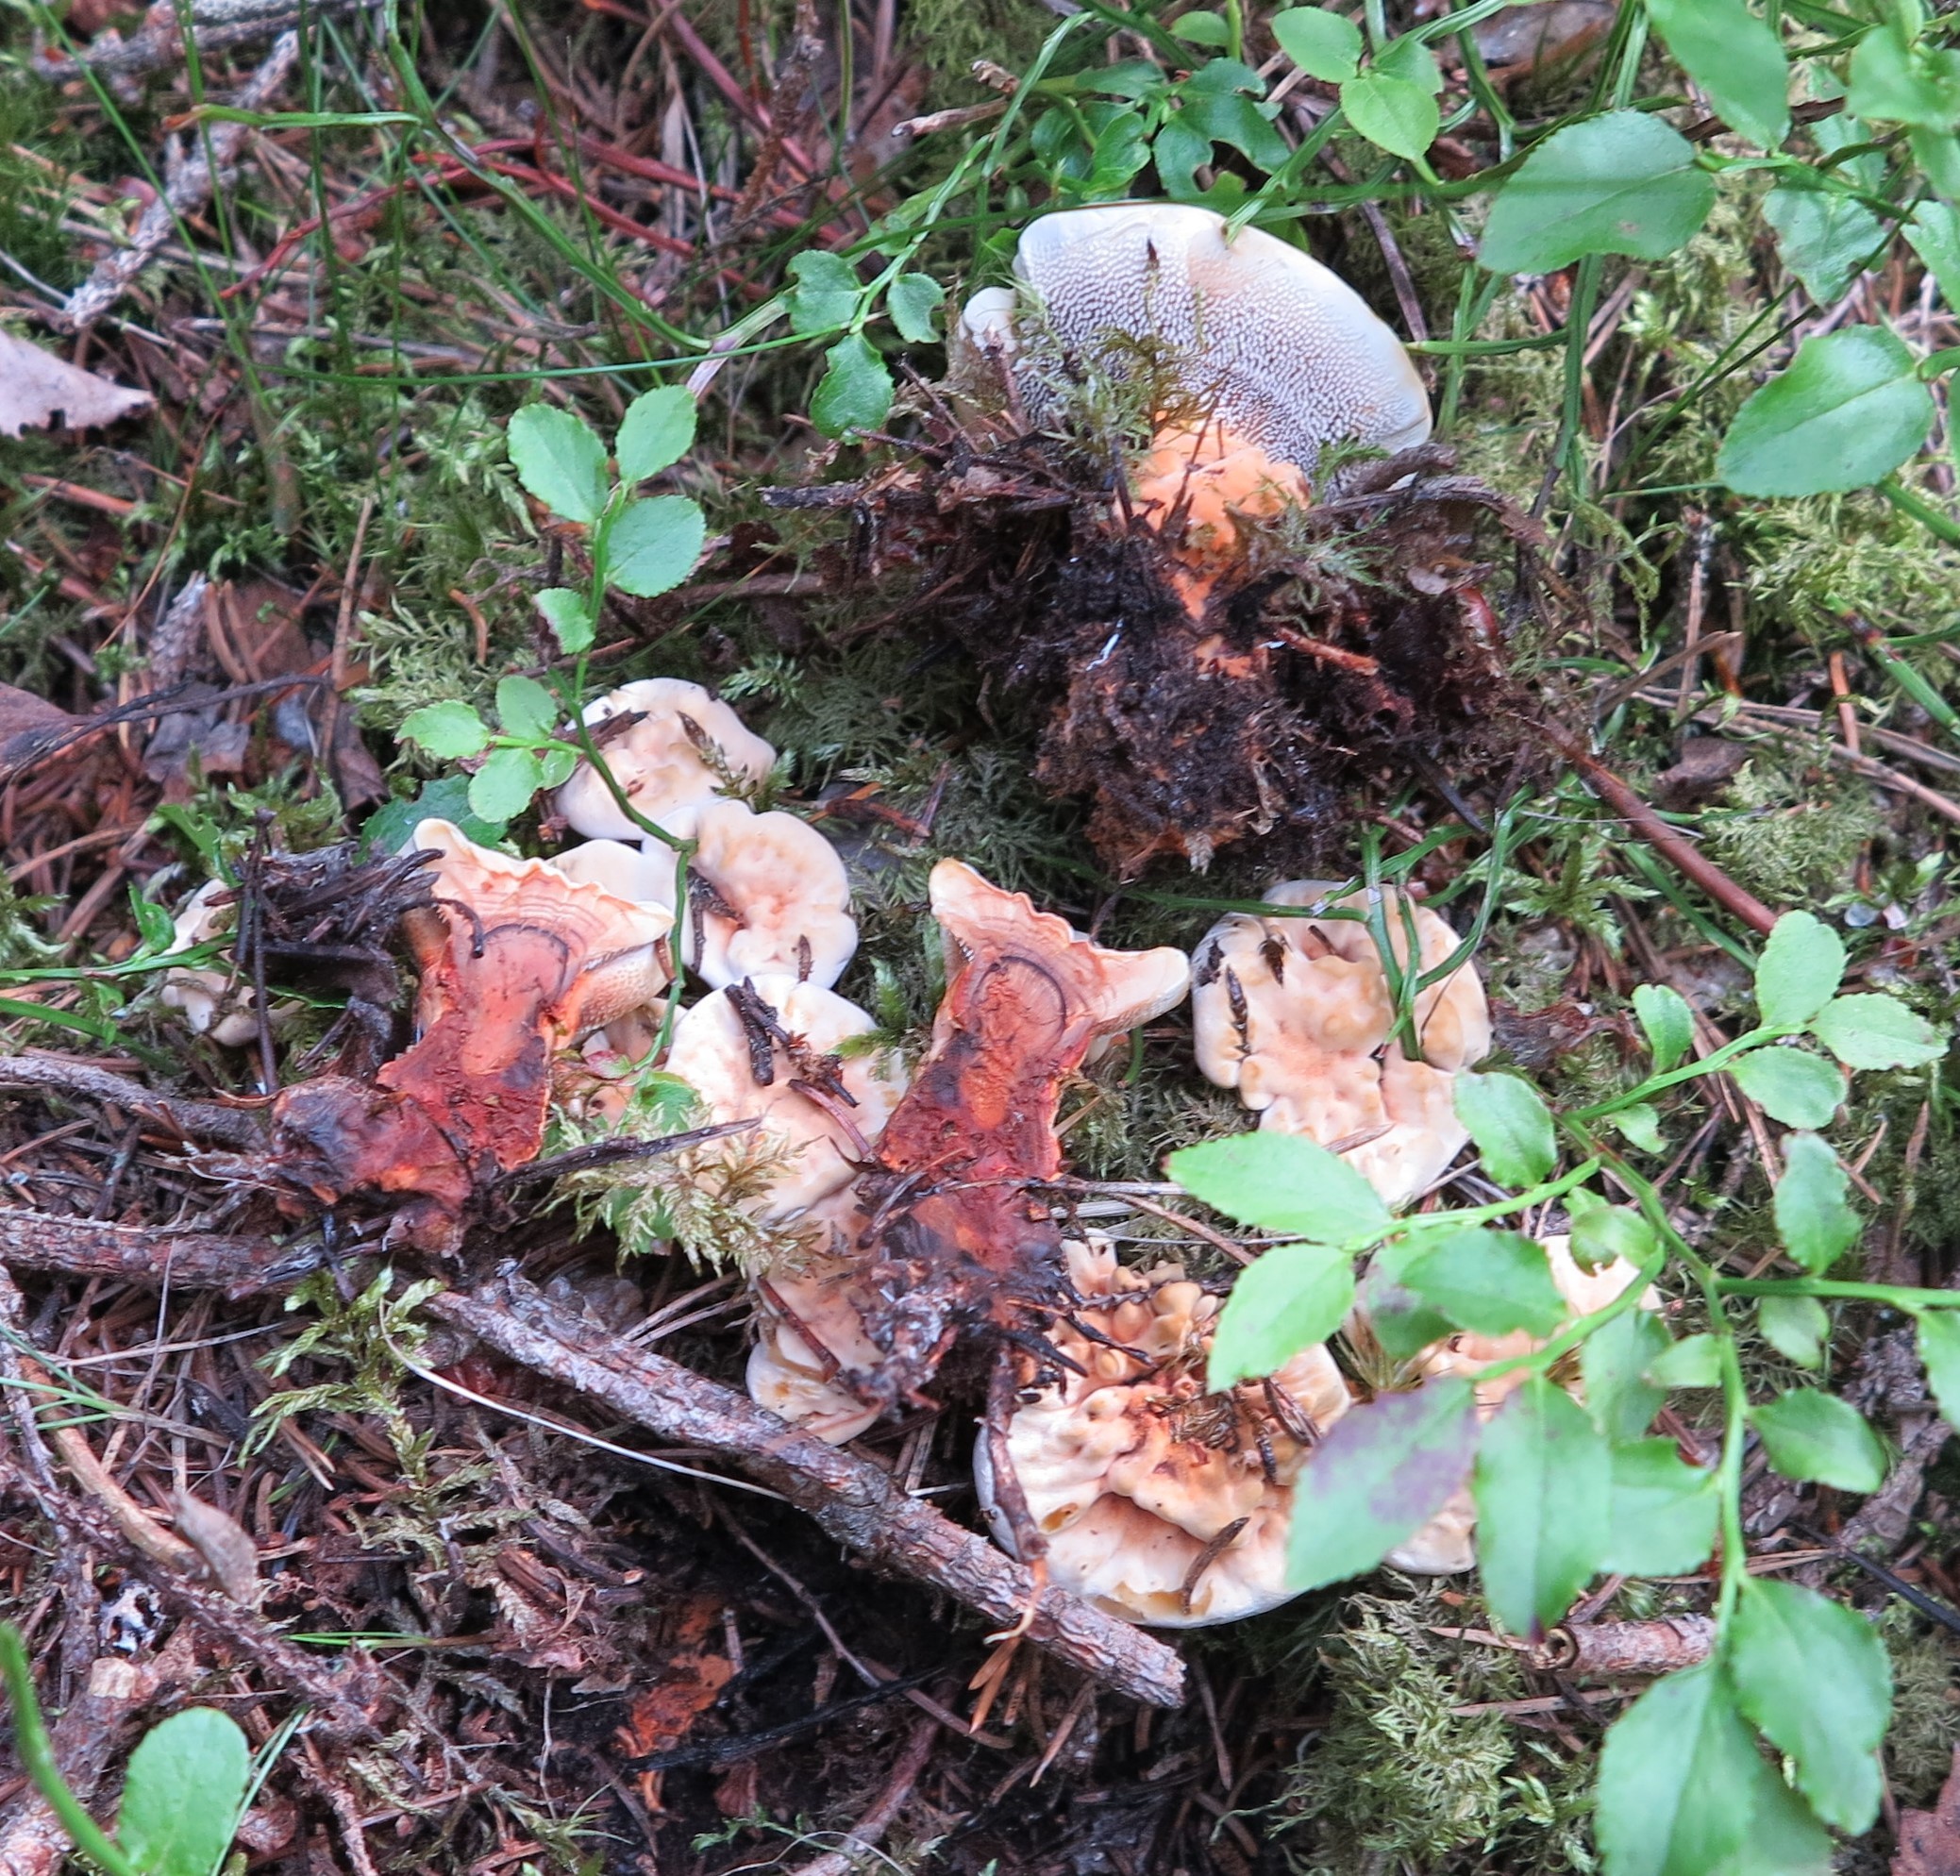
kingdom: Fungi
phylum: Basidiomycota
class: Agaricomycetes
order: Thelephorales
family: Bankeraceae
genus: Hydnellum
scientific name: Hydnellum aurantiacum
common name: Orange tooth
